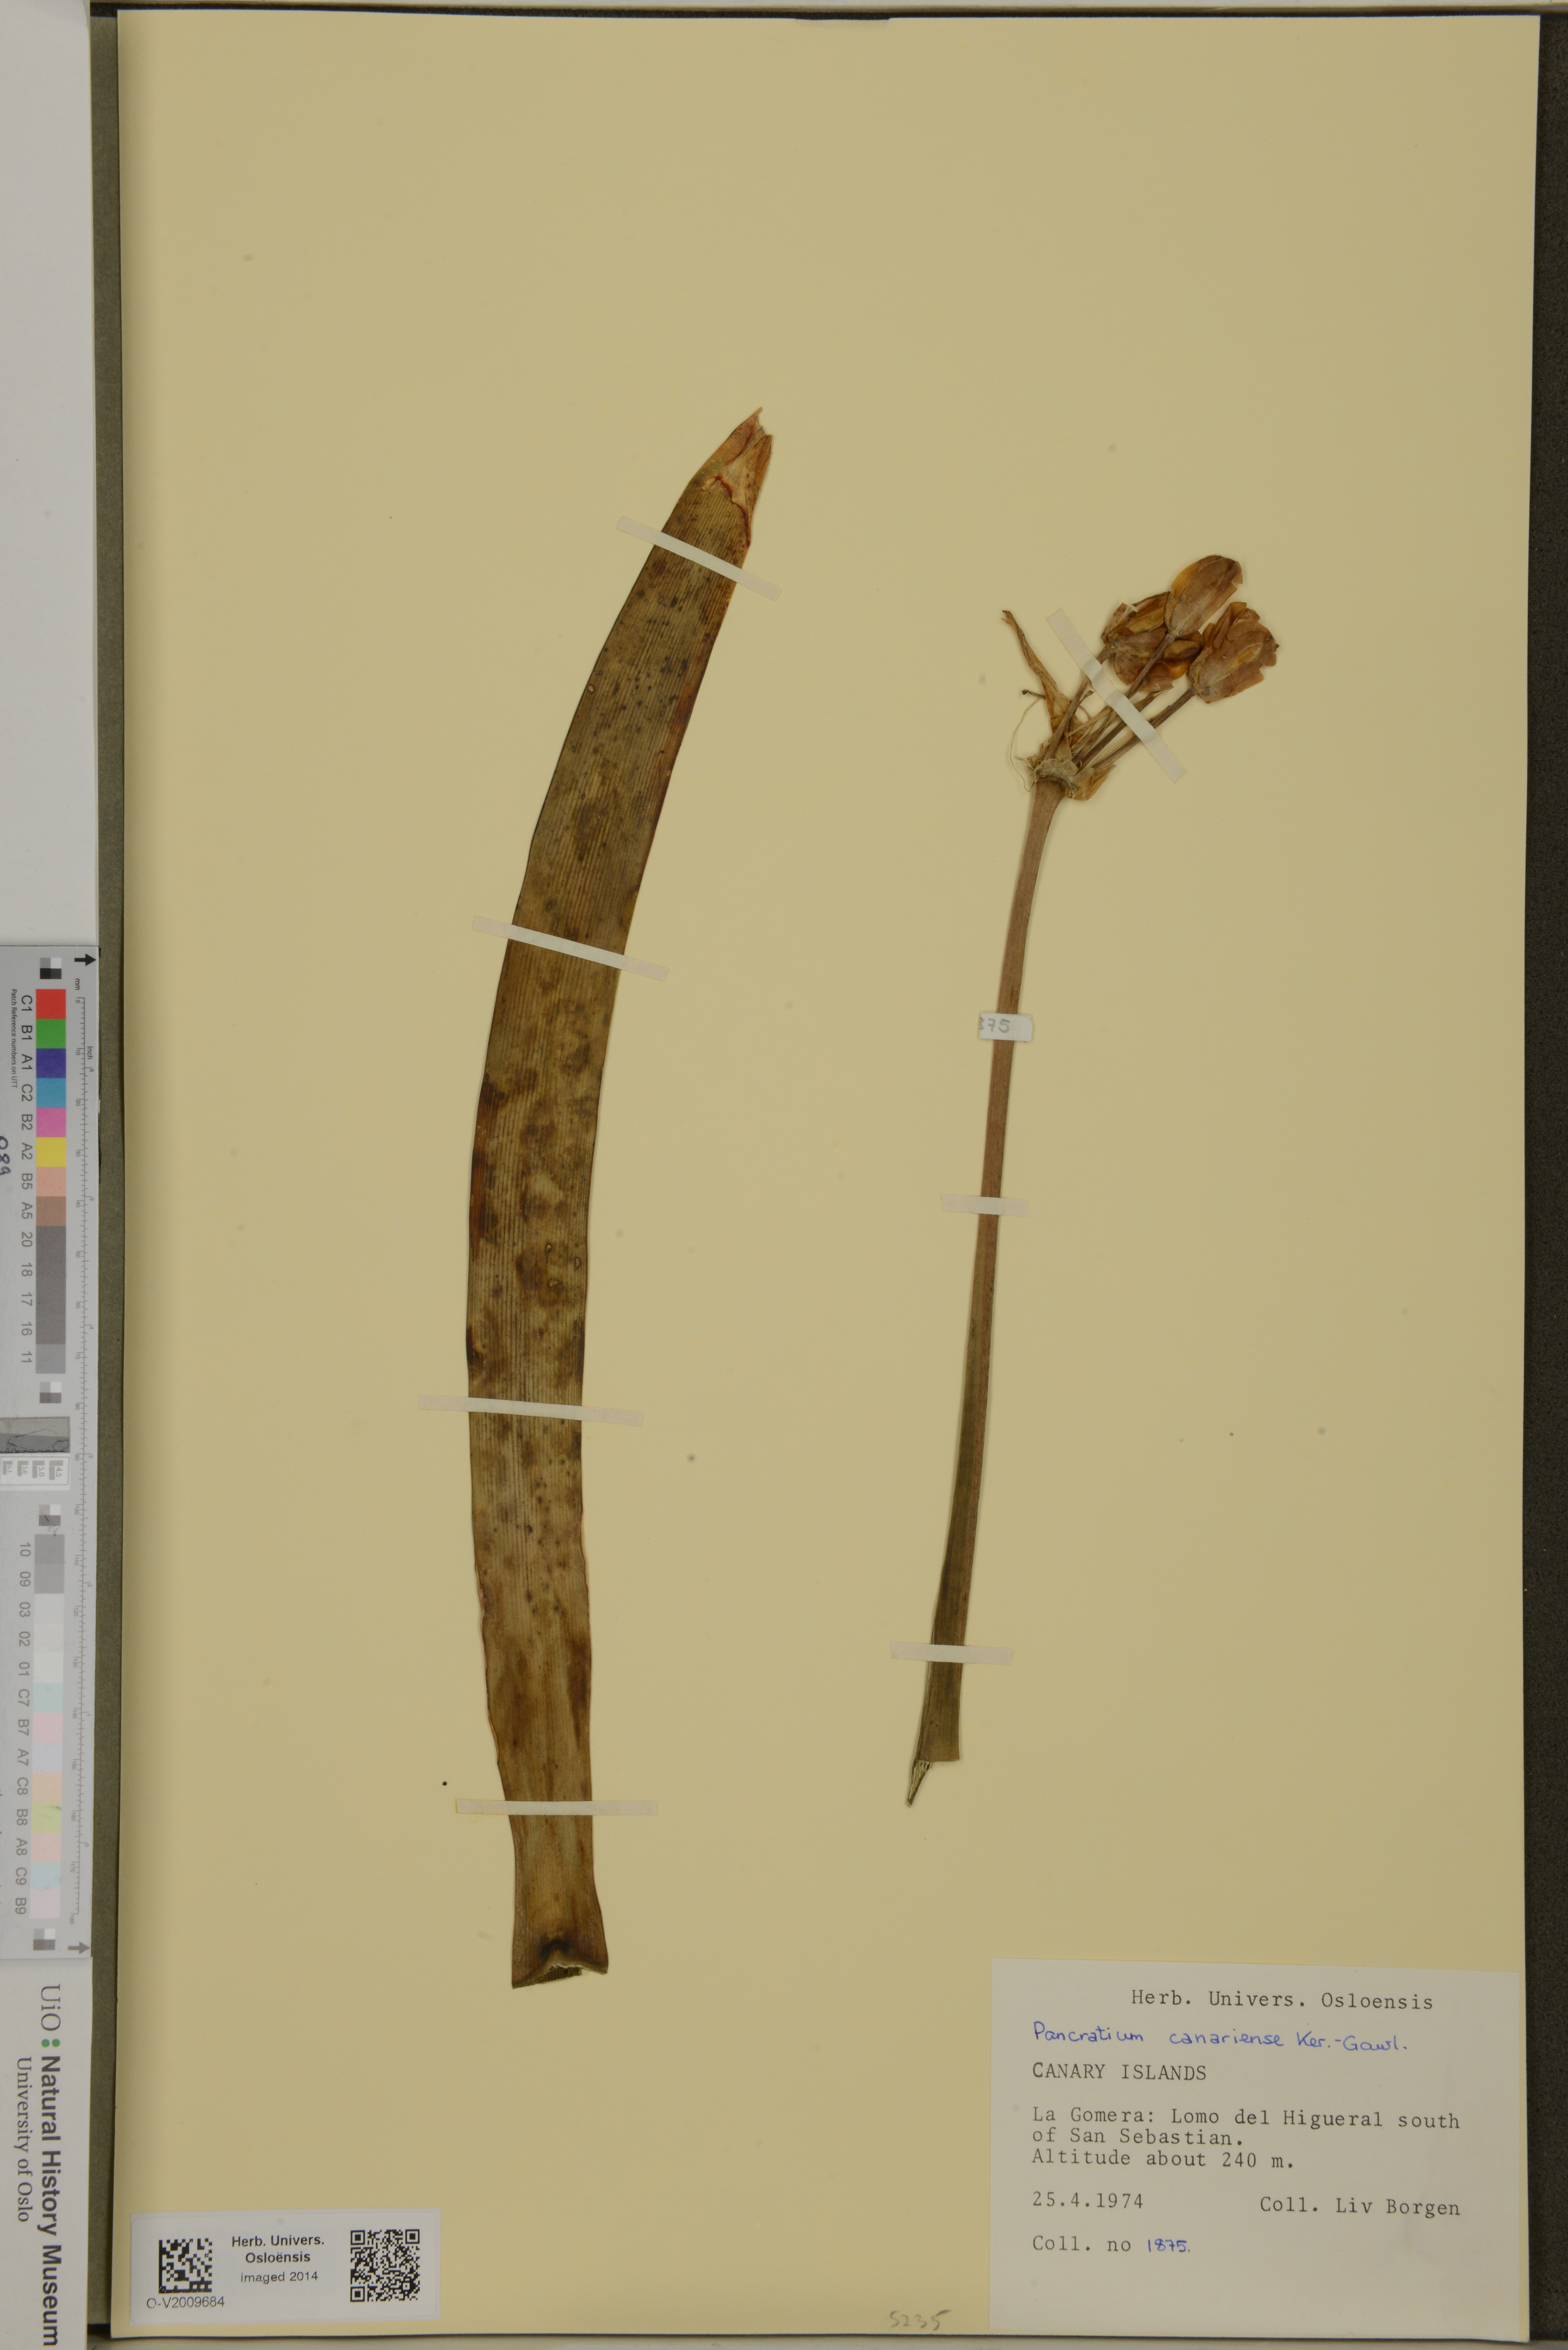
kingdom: Plantae
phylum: Tracheophyta
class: Liliopsida
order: Asparagales
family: Amaryllidaceae
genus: Pancratium
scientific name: Pancratium canariense
